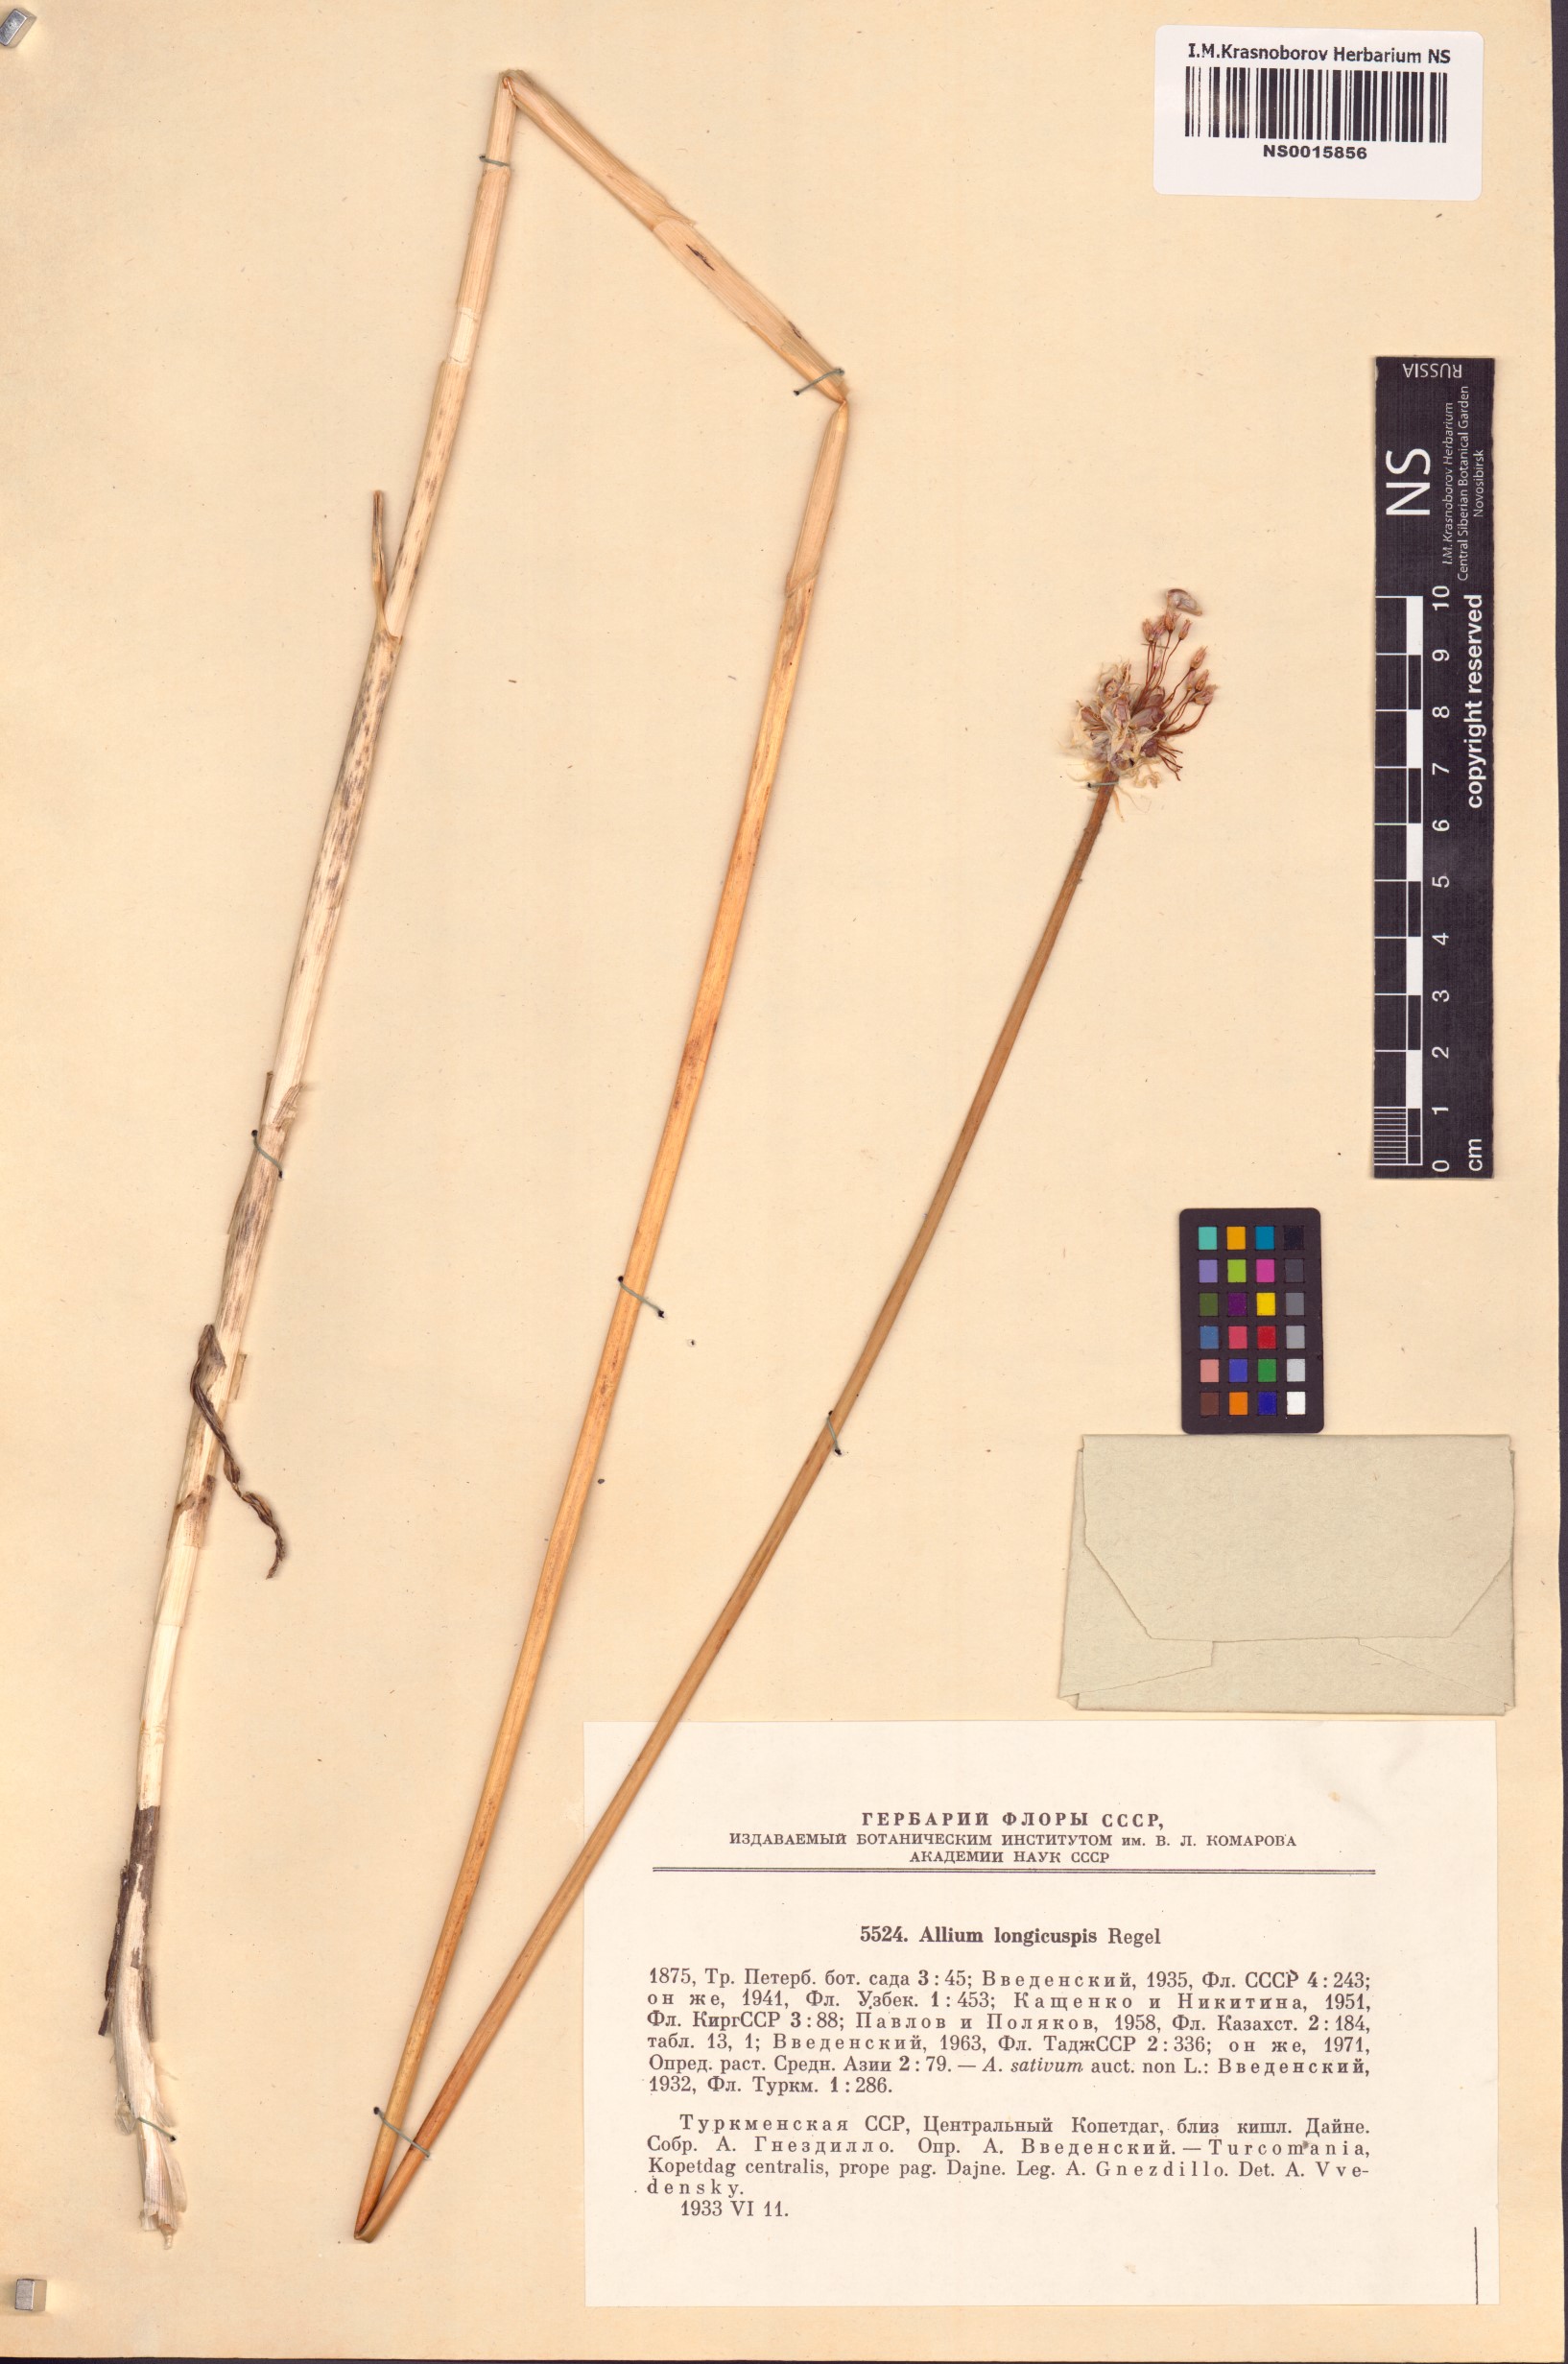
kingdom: Plantae
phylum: Tracheophyta
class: Liliopsida
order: Asparagales
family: Amaryllidaceae
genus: Allium
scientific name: Allium sativum
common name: Garlic
